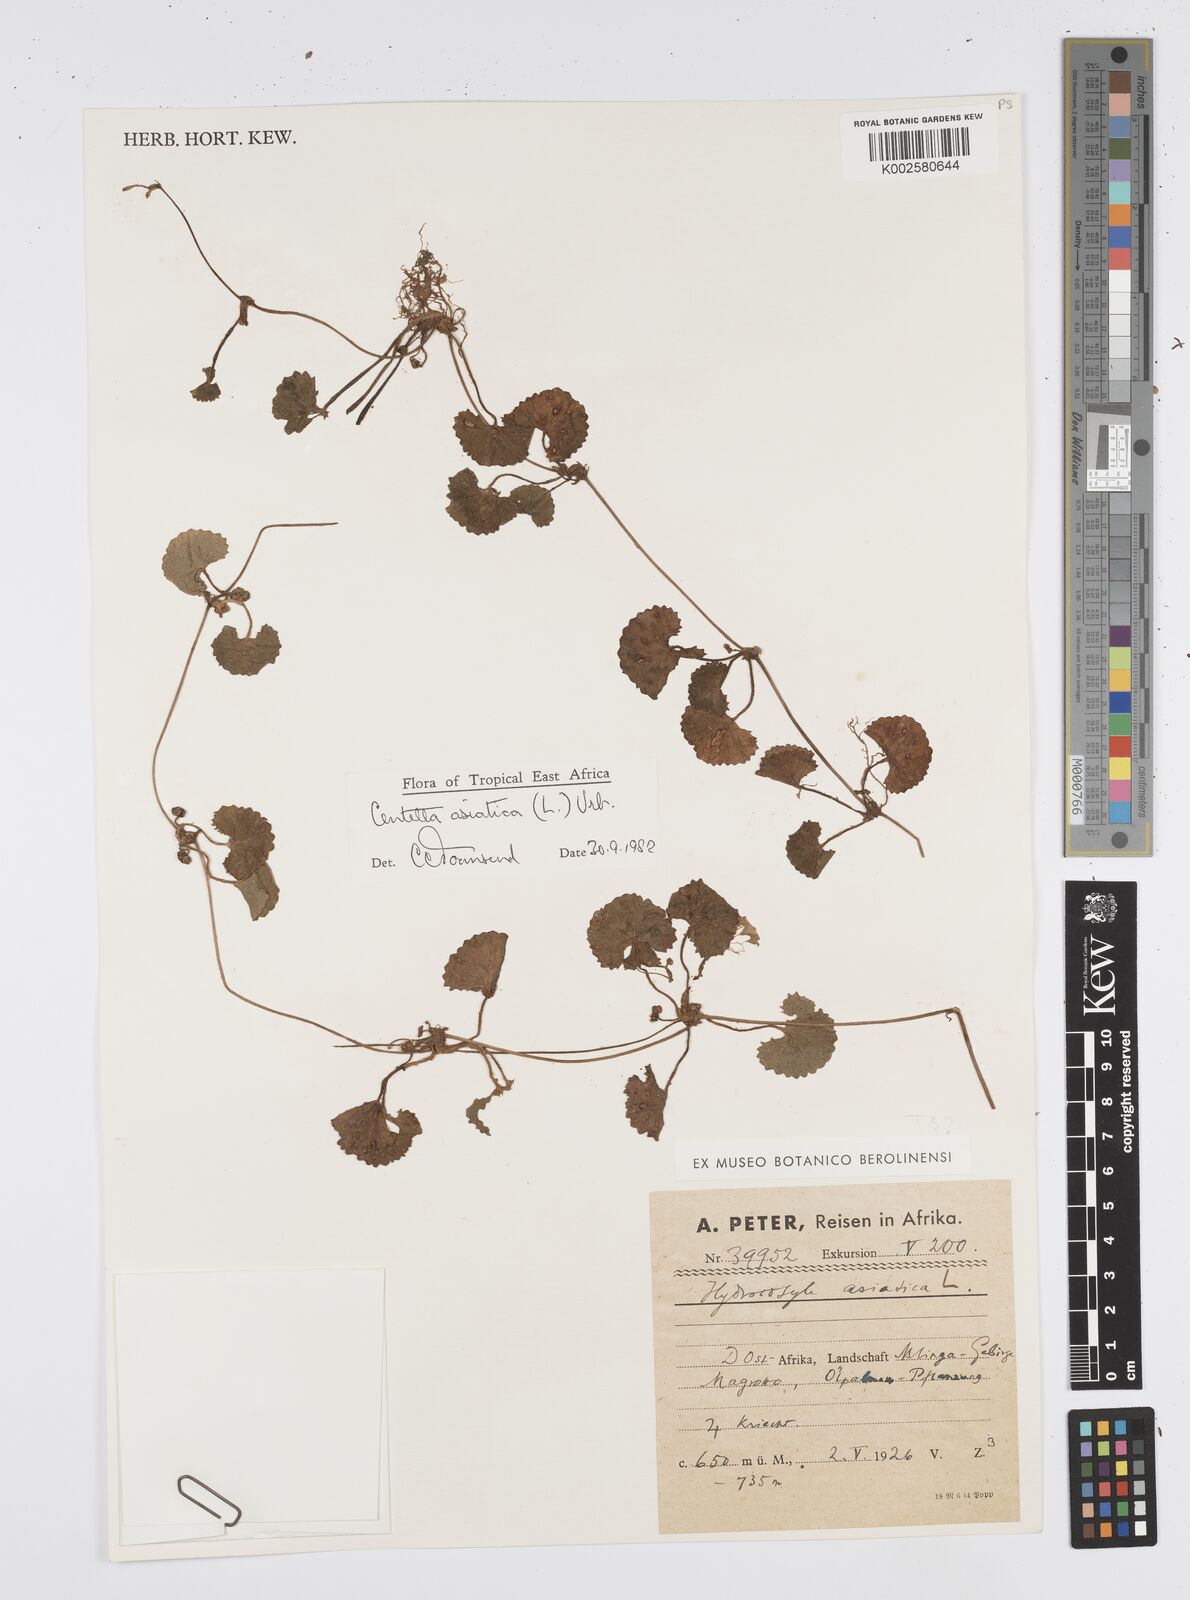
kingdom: Plantae
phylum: Tracheophyta
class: Magnoliopsida
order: Apiales
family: Apiaceae
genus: Centella
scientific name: Centella asiatica
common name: Spadeleaf
